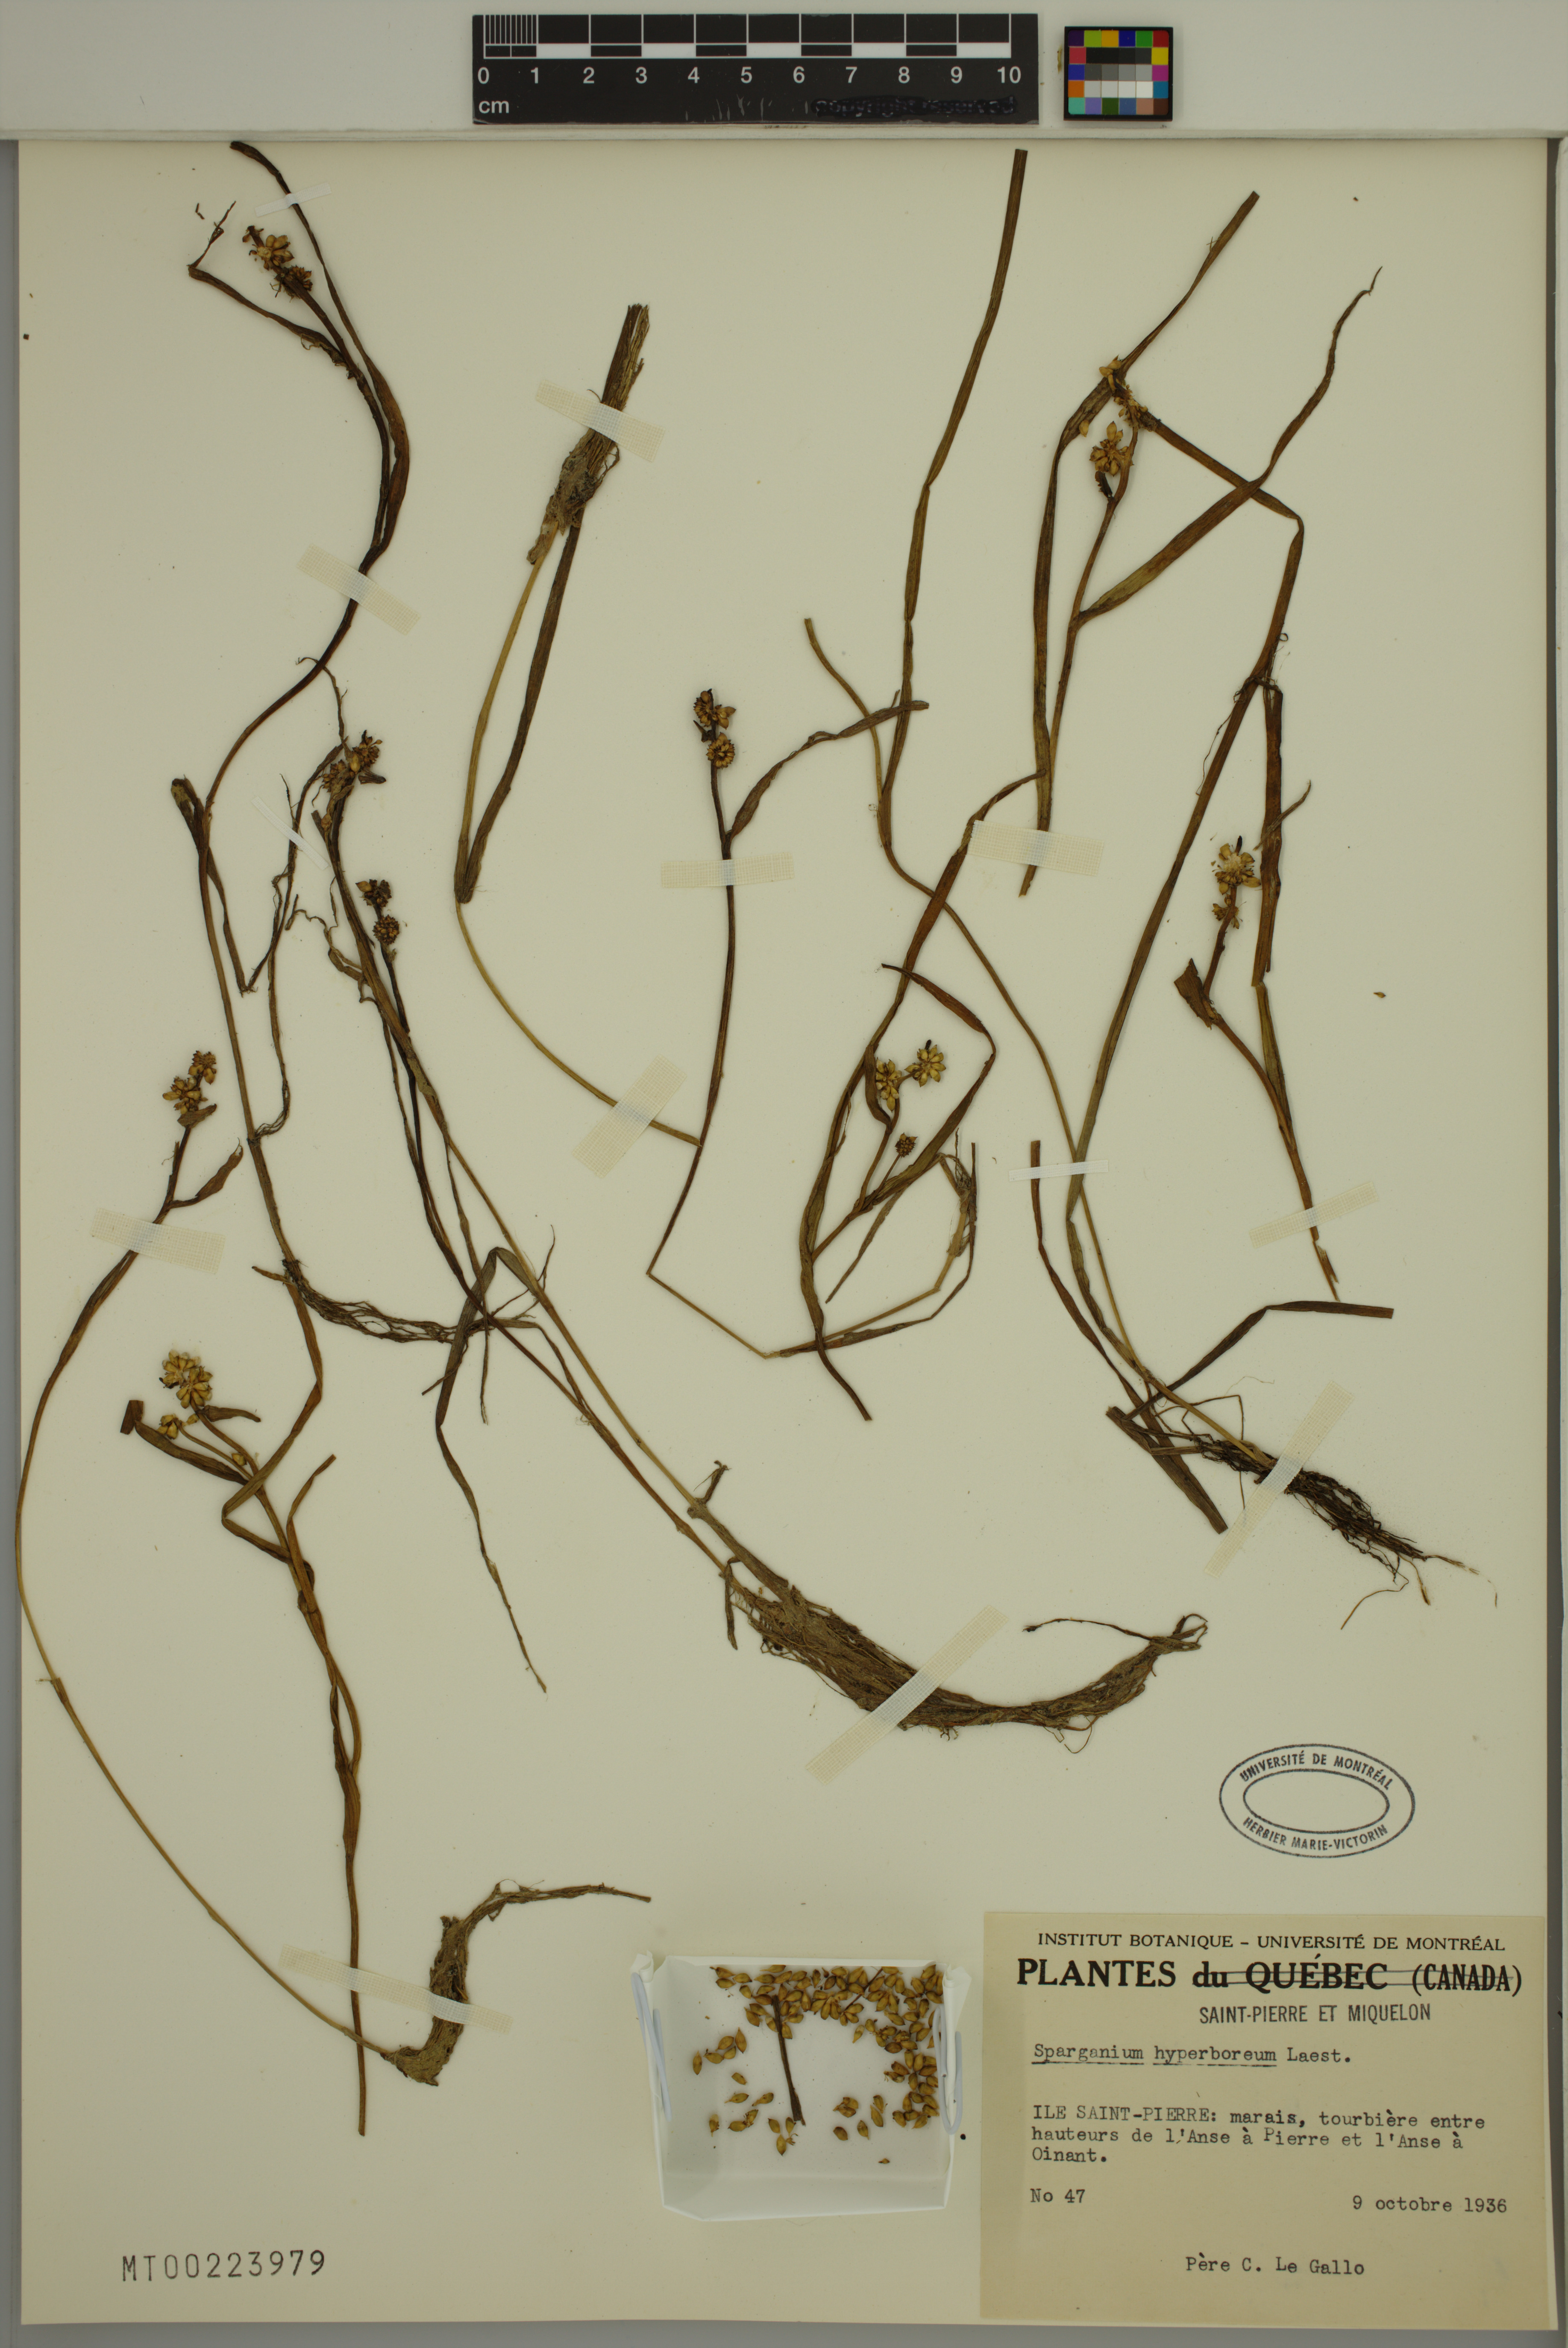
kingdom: Plantae
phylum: Tracheophyta
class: Liliopsida
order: Poales
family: Typhaceae
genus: Sparganium
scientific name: Sparganium hyperboreum
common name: Arctic burreed
